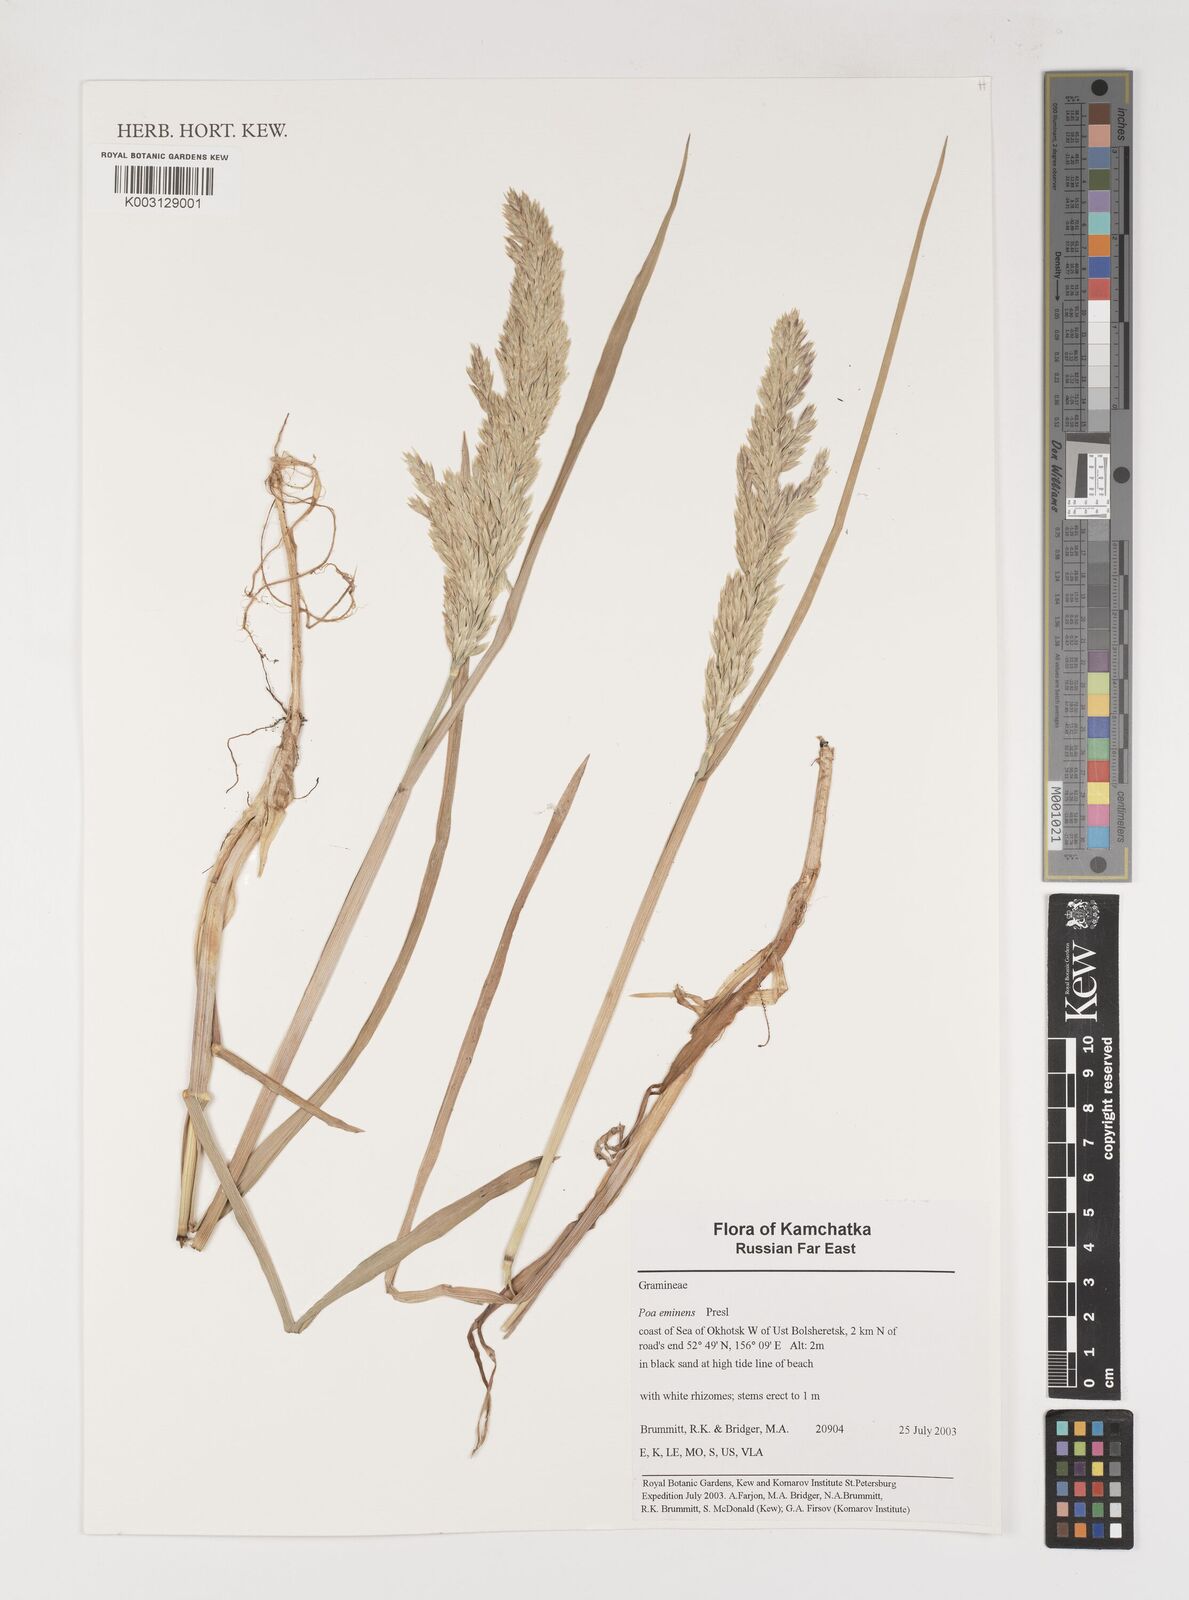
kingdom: Plantae
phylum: Tracheophyta
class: Liliopsida
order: Poales
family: Poaceae
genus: Arctopoa
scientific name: Arctopoa eminens
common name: Eminent bluegrass
